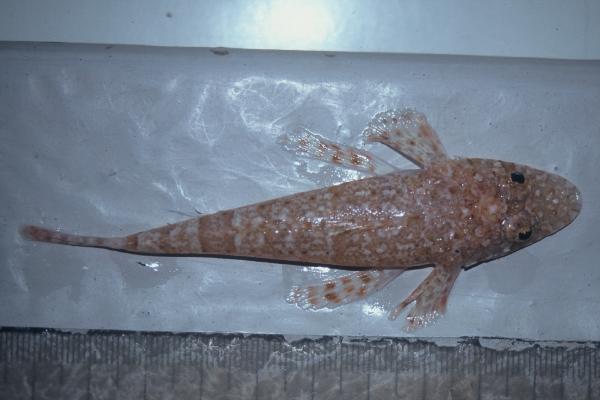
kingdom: Animalia
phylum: Chordata
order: Scorpaeniformes
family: Platycephalidae
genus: Sunagocia
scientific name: Sunagocia arenicola
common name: Broadhead flathead
